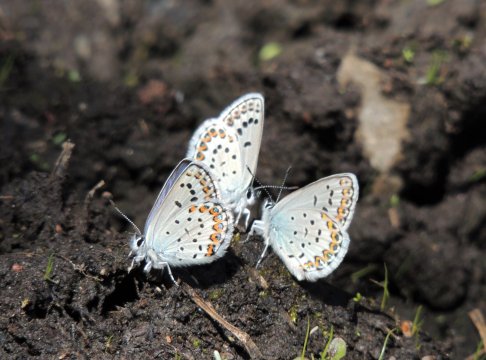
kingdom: Animalia
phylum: Arthropoda
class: Insecta
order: Lepidoptera
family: Lycaenidae
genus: Lycaeides
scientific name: Lycaeides idas
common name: Northern Blue
